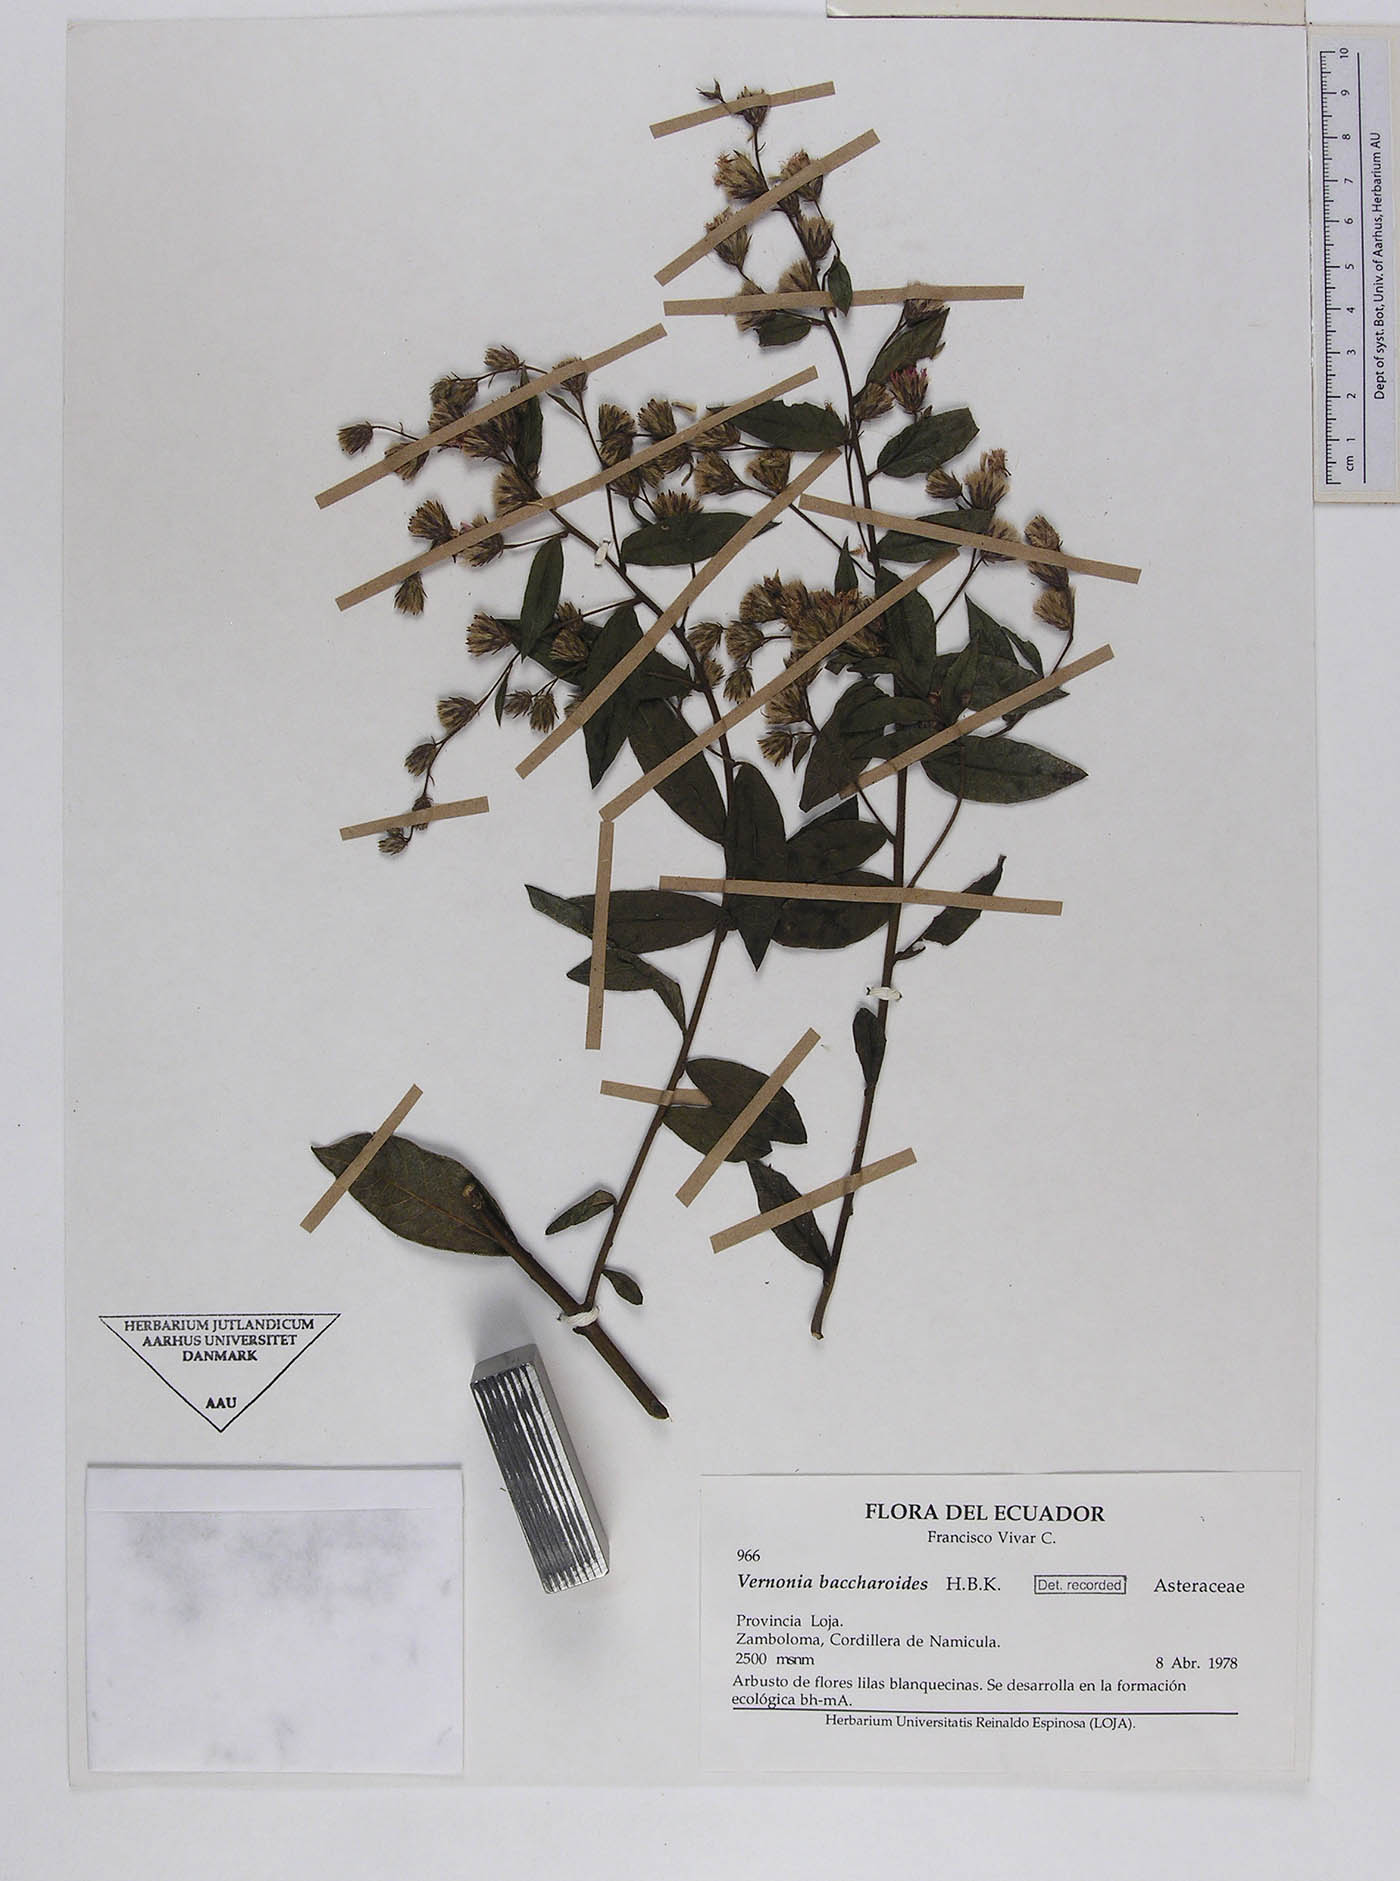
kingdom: Plantae
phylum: Tracheophyta
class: Magnoliopsida
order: Asterales
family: Asteraceae
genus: Lepidaploa
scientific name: Lepidaploa sordidopapposa
